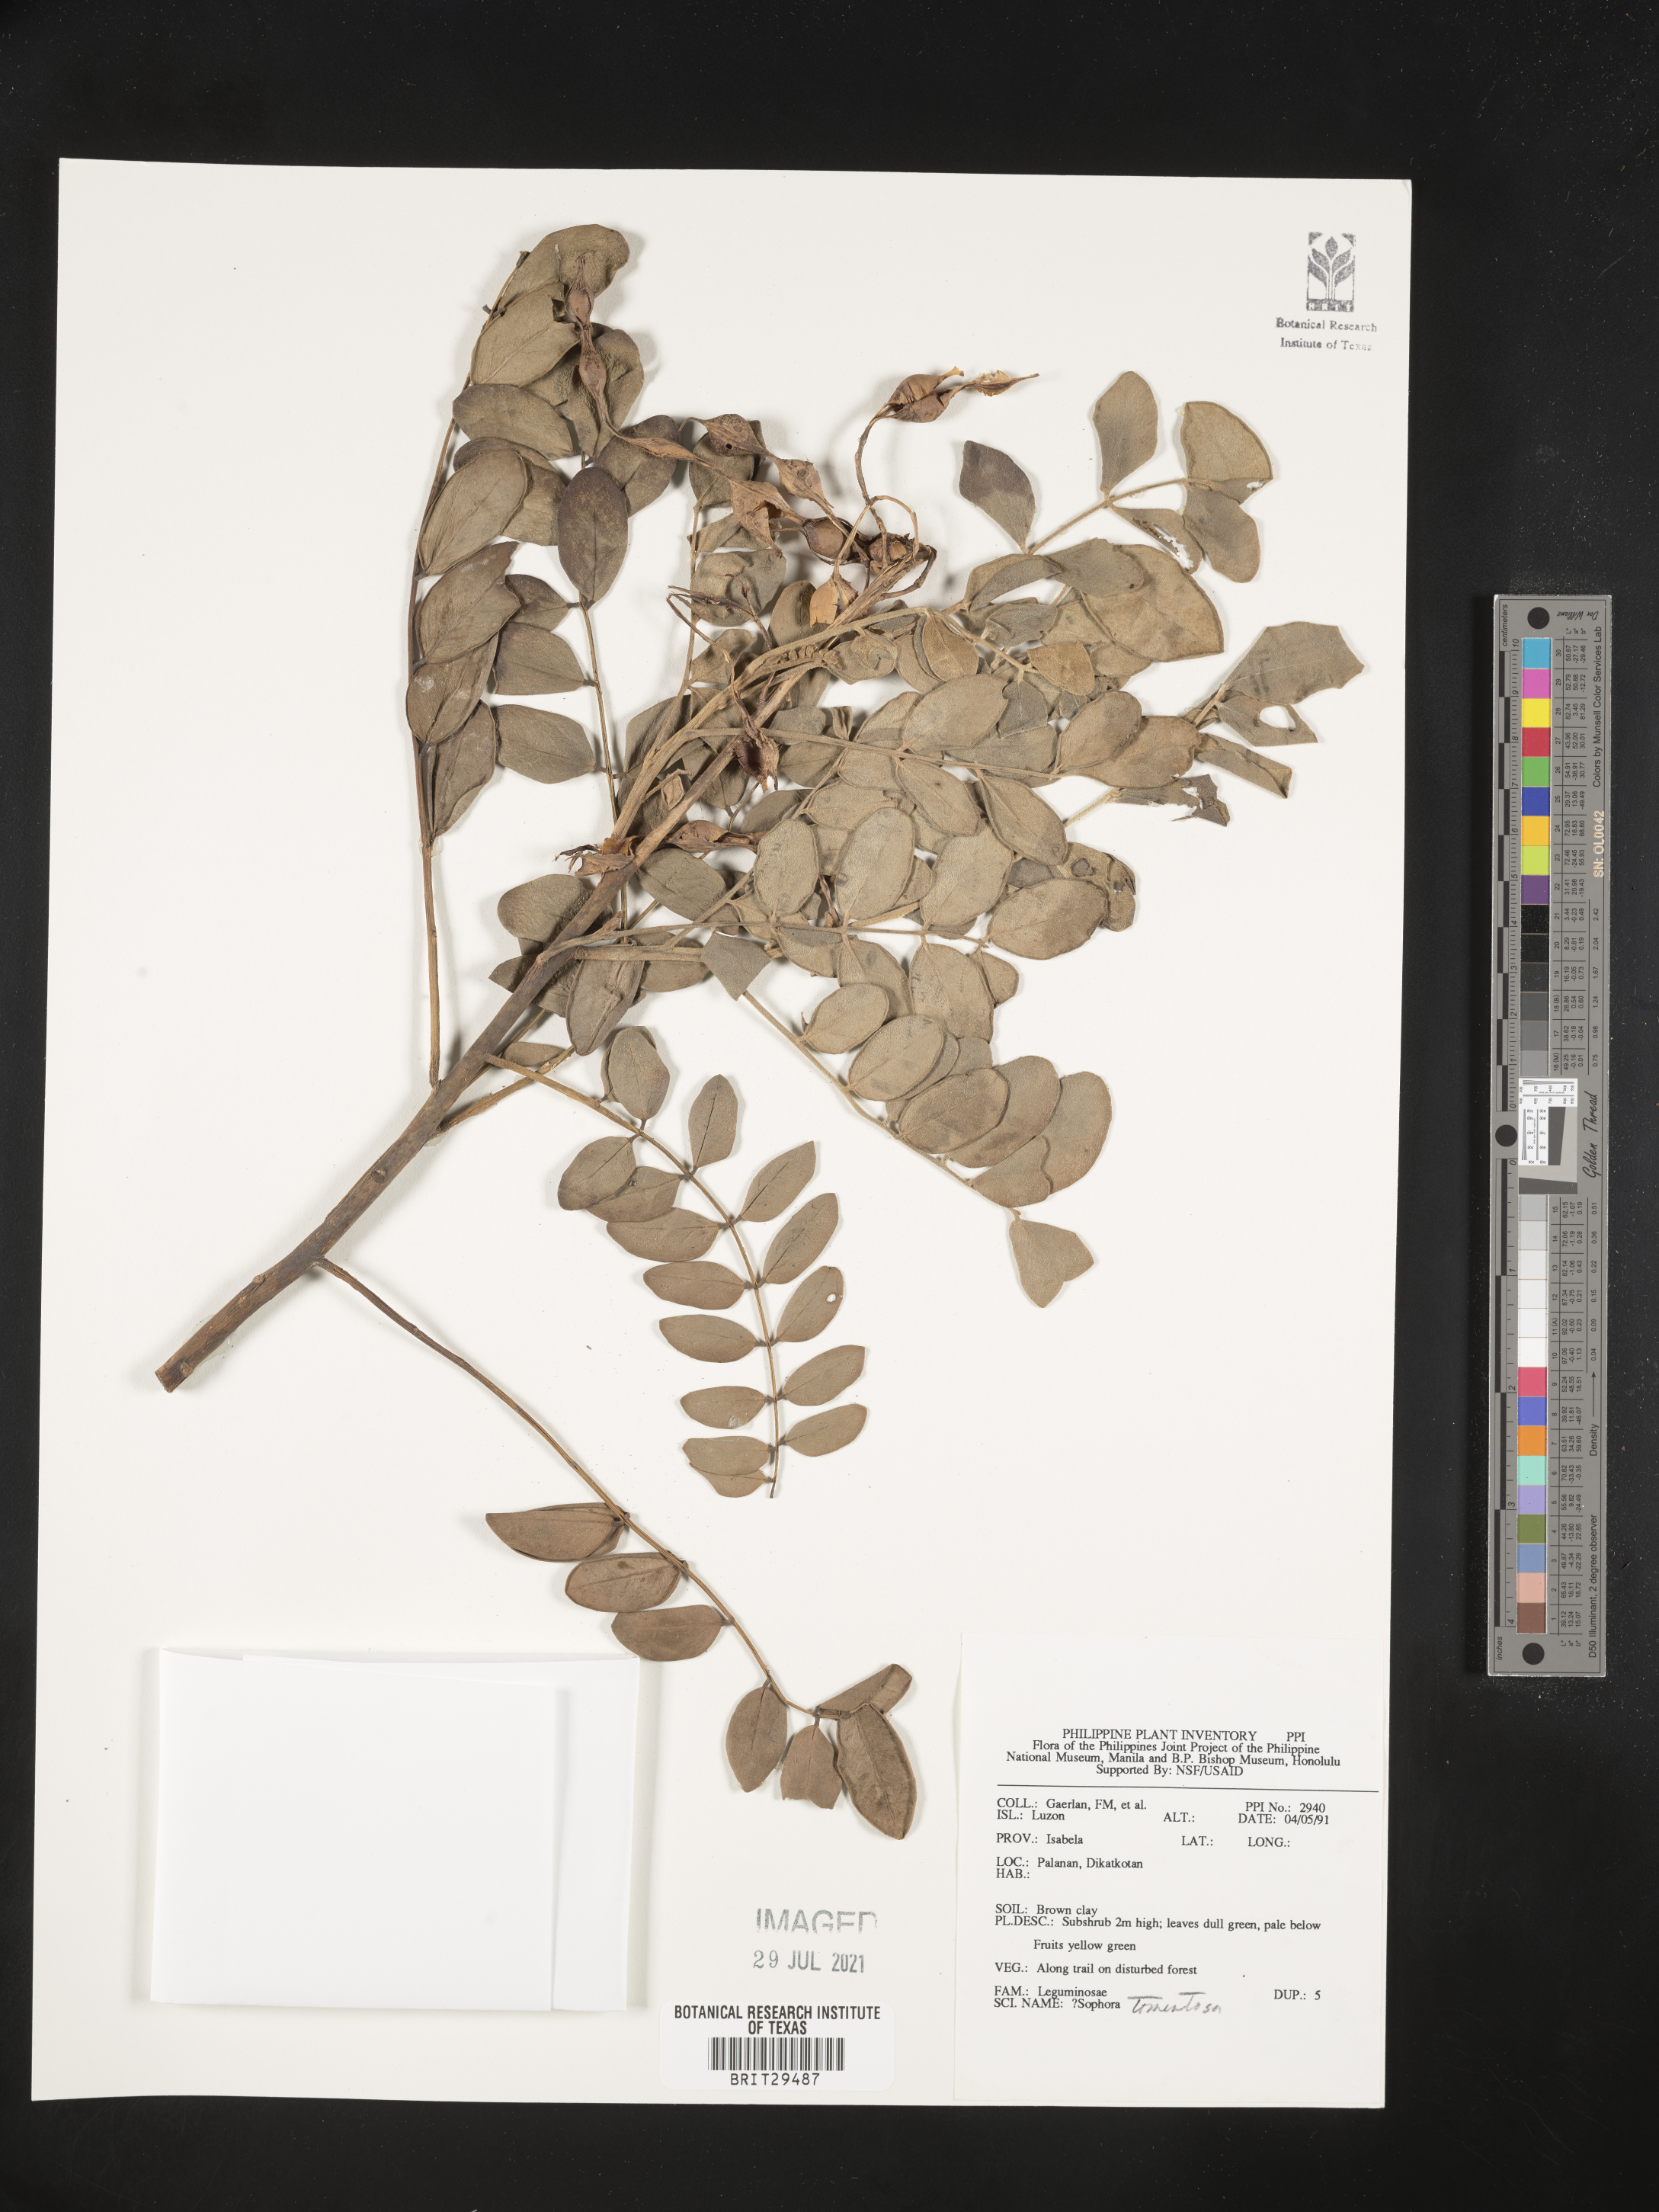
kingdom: Plantae
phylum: Tracheophyta
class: Magnoliopsida
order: Fabales
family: Fabaceae
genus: Sophora
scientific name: Sophora tomentosa
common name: Yellow necklacepod
